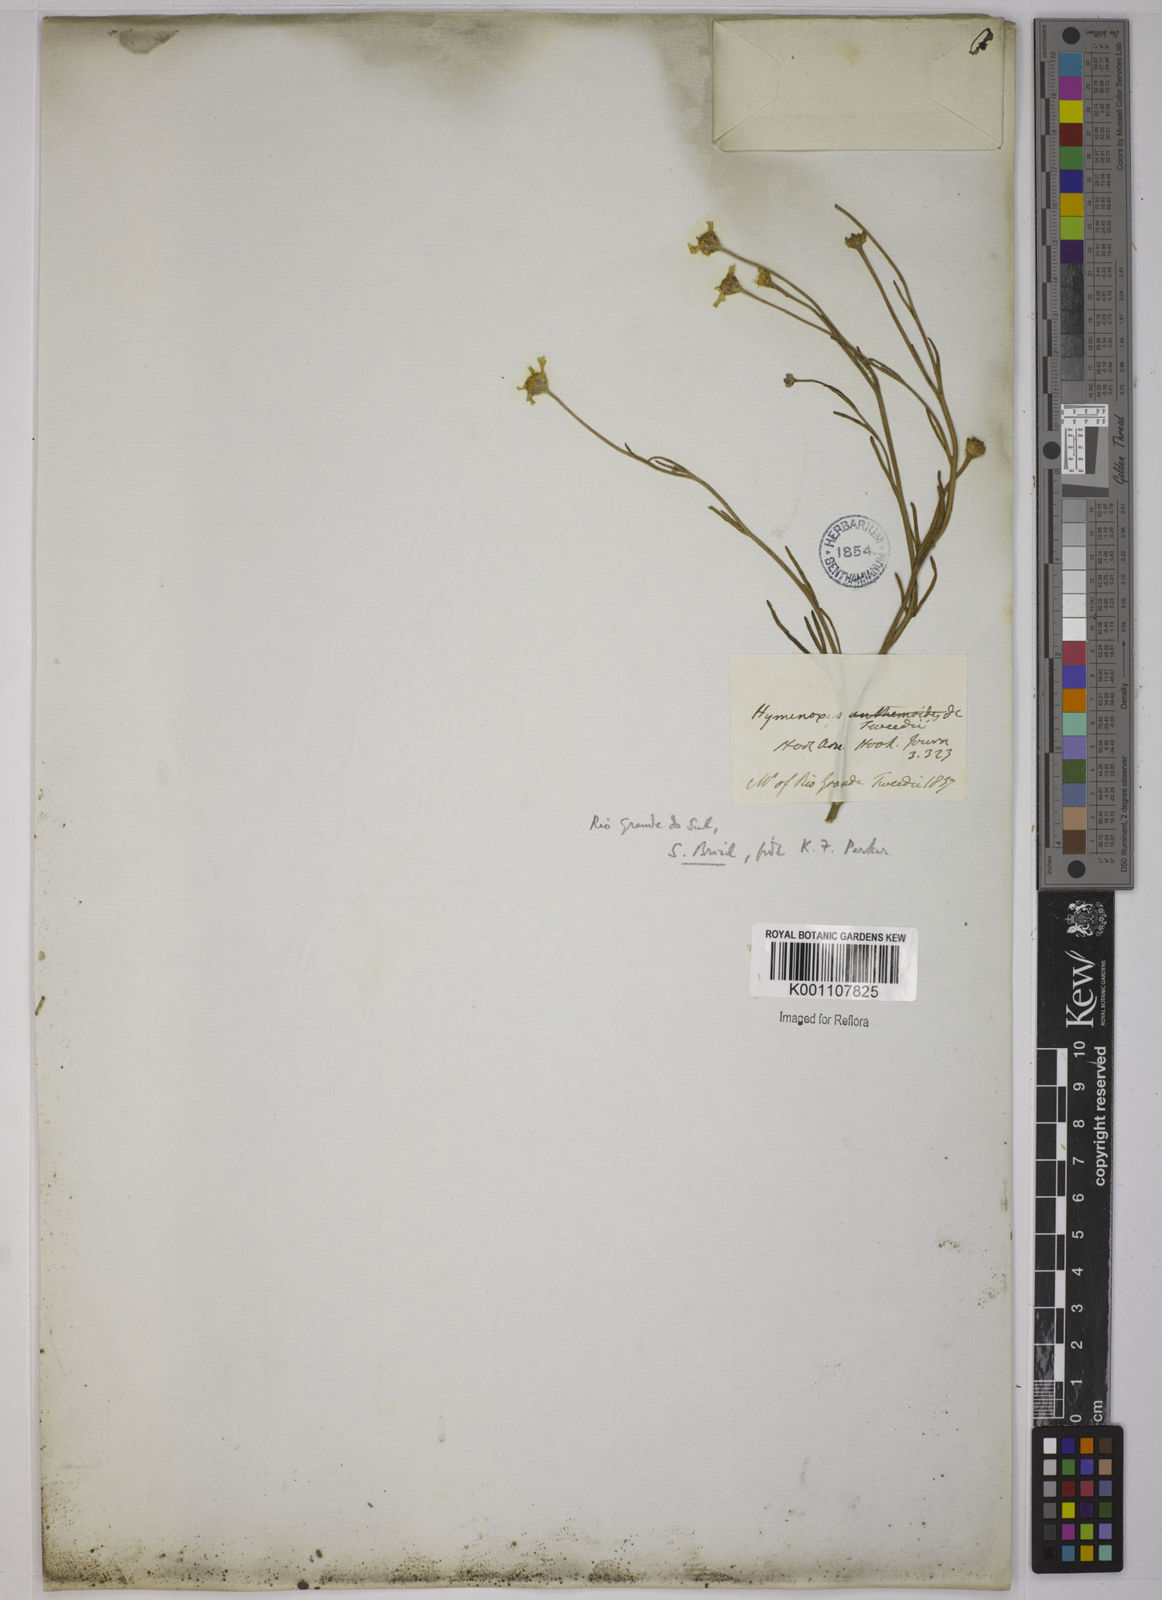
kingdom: Plantae
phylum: Tracheophyta
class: Magnoliopsida
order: Asterales
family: Asteraceae
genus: Hymenoxys
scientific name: Hymenoxys megapotamica
